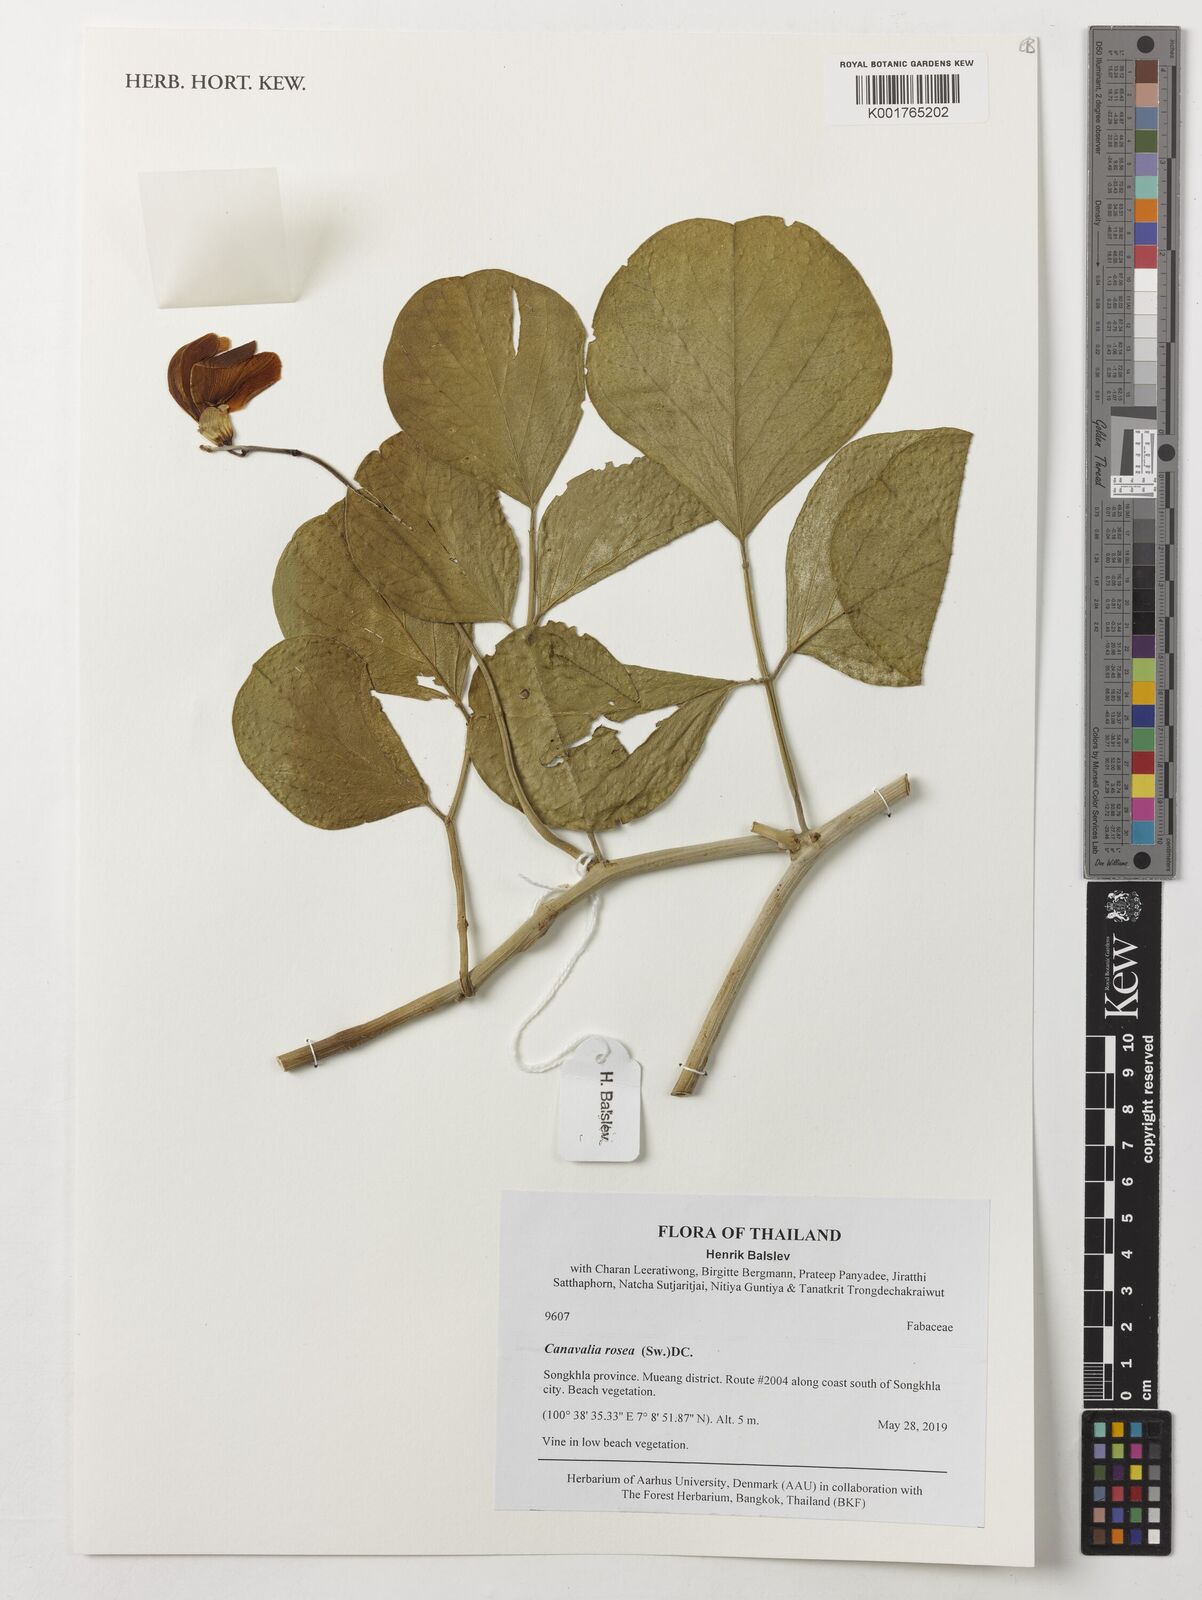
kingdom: Plantae
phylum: Tracheophyta
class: Magnoliopsida
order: Fabales
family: Fabaceae
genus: Canavalia
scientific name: Canavalia rosea
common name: Beach-bean
